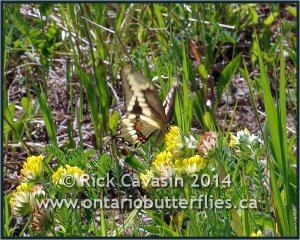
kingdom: Animalia
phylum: Arthropoda
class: Insecta
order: Lepidoptera
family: Papilionidae
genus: Papilio
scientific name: Papilio cresphontes
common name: Eastern Giant Swallowtail
